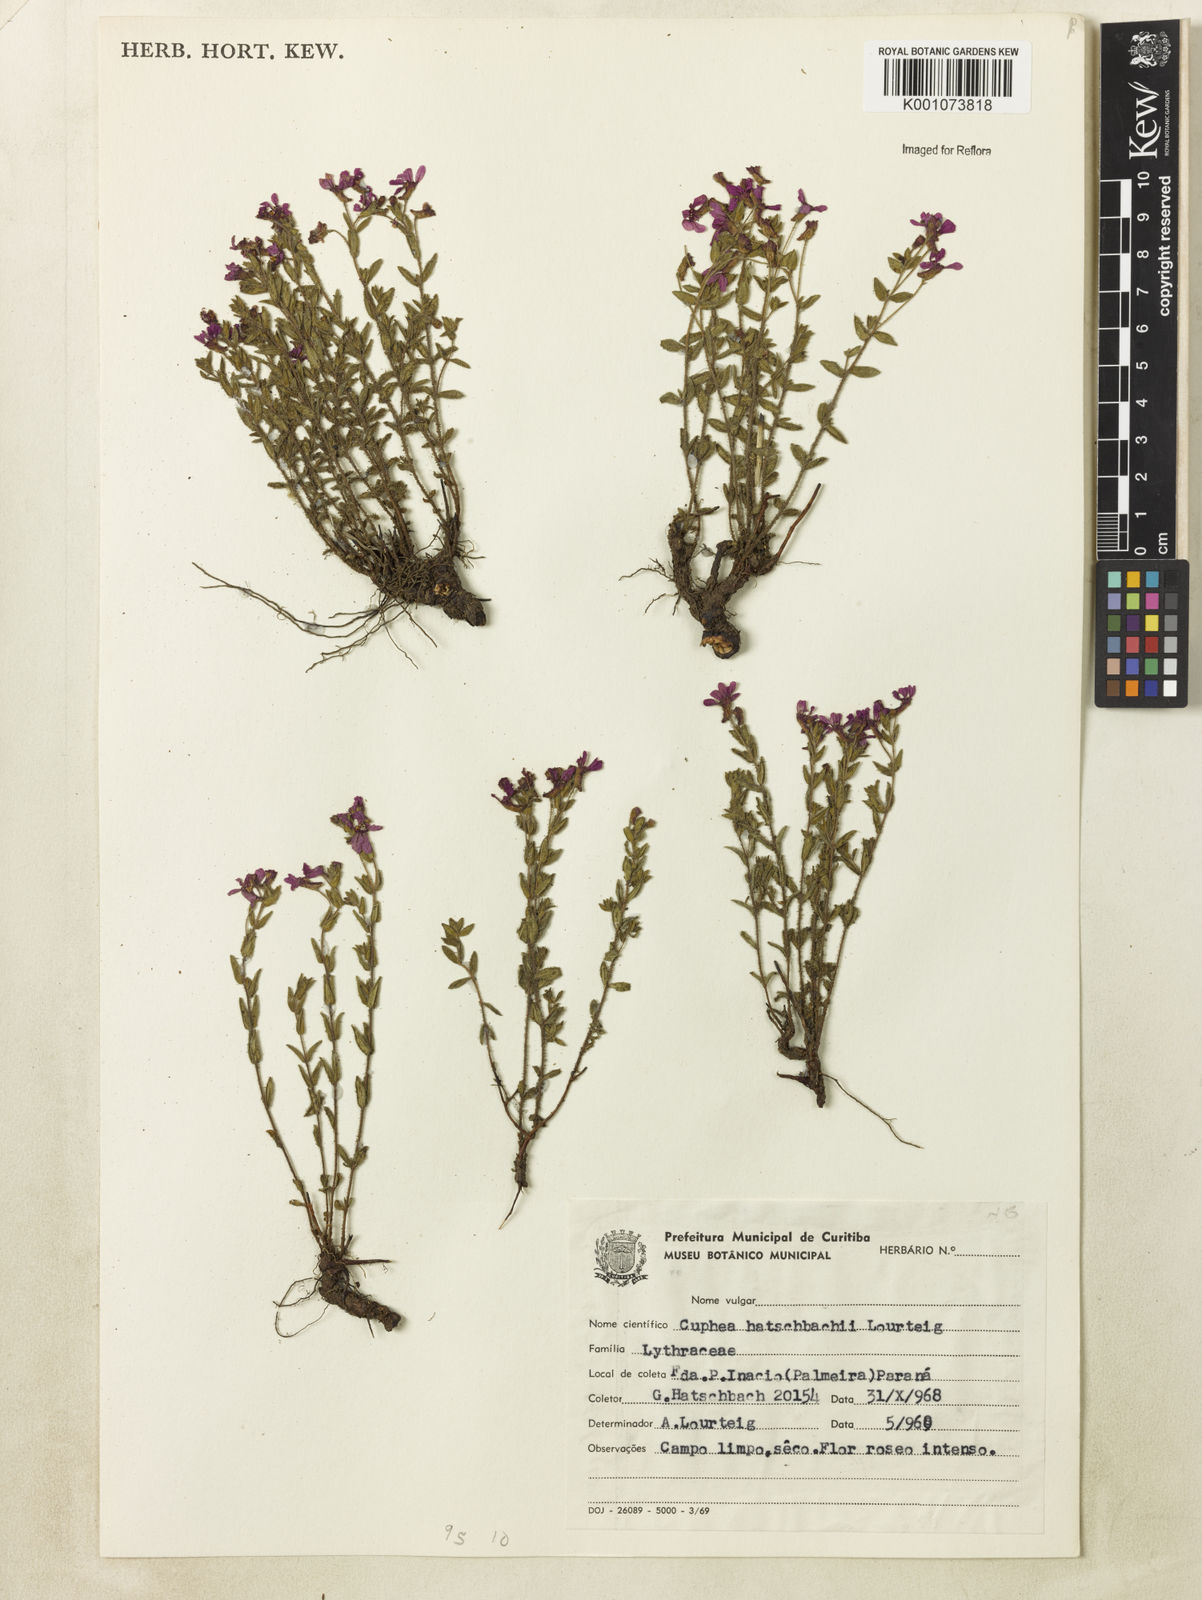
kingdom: Plantae
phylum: Tracheophyta
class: Magnoliopsida
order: Myrtales
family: Lythraceae
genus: Cuphea
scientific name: Cuphea hatschbachii
